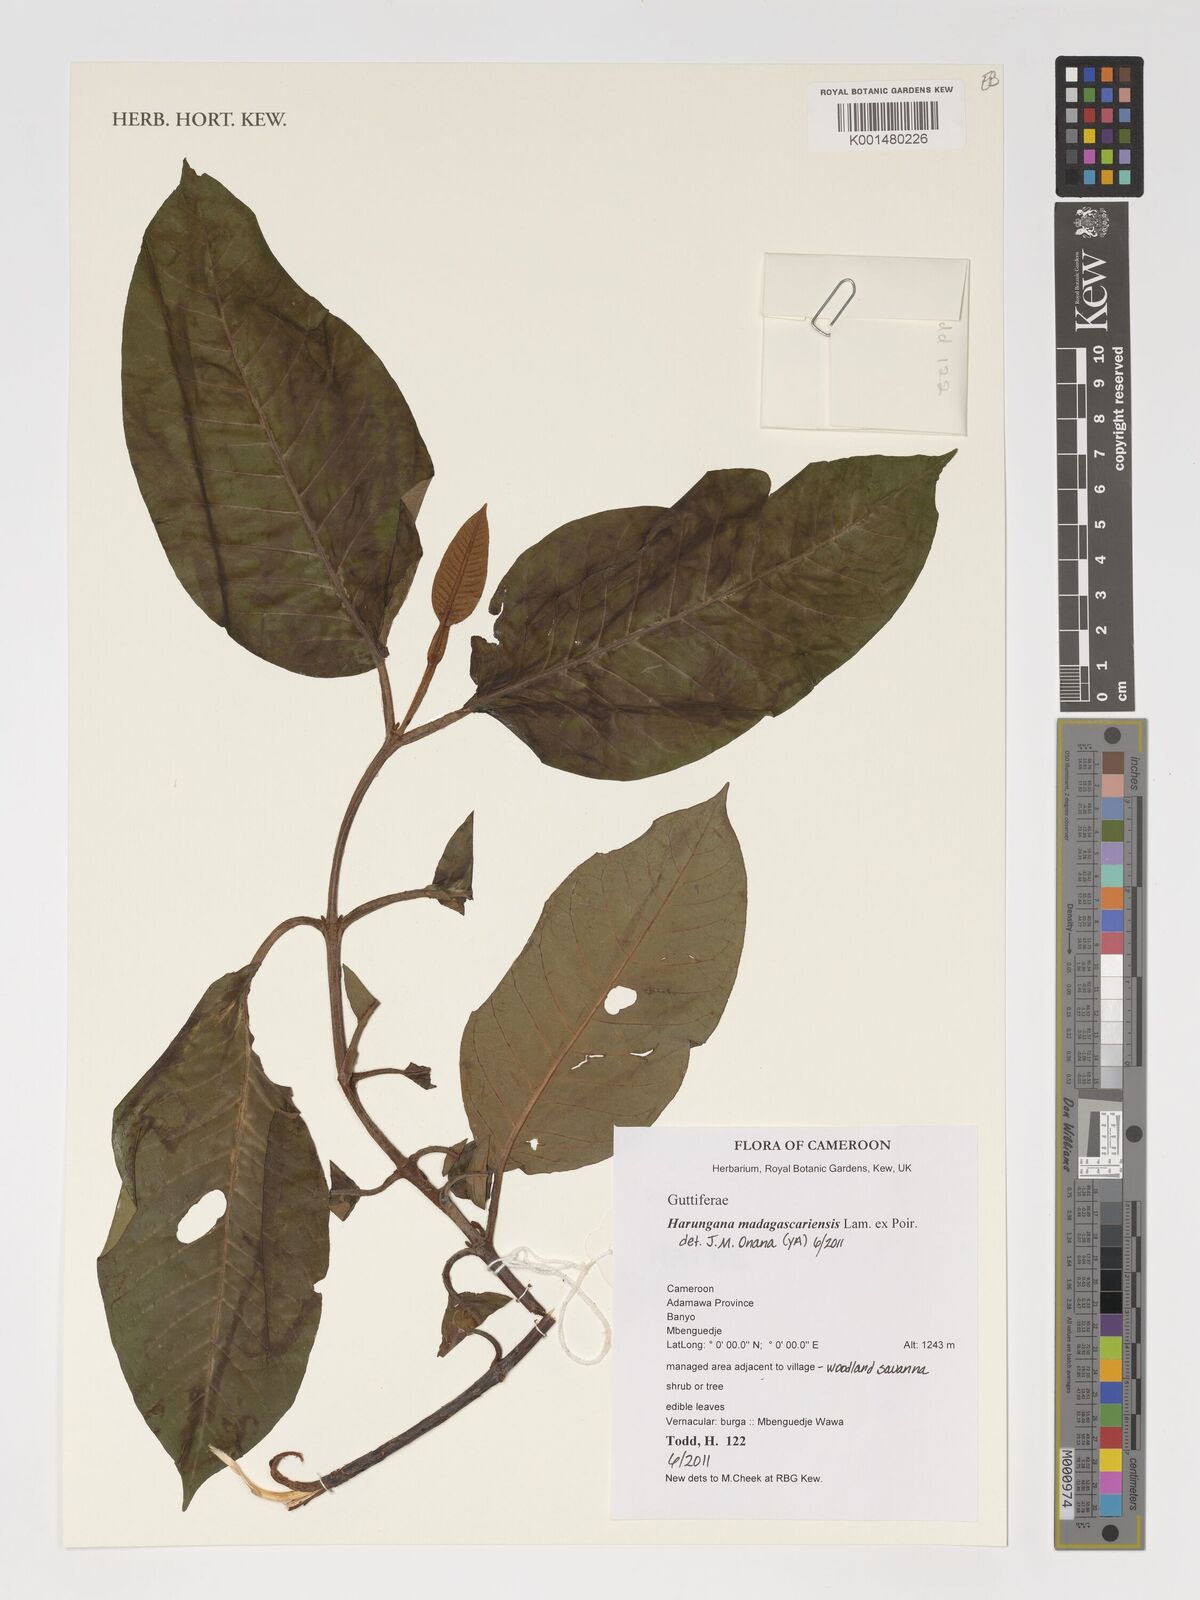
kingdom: Plantae
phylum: Tracheophyta
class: Magnoliopsida
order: Malpighiales
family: Hypericaceae
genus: Harungana
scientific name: Harungana madagascariensis
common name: Orange milktree
